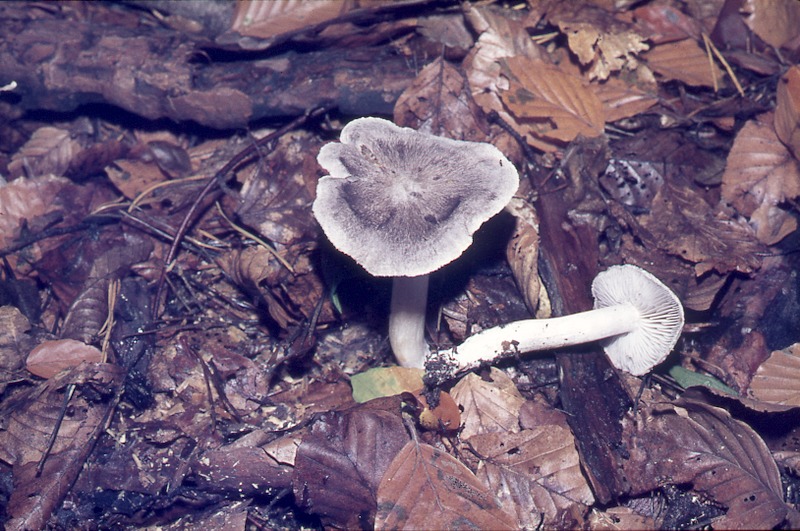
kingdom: Fungi
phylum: Basidiomycota
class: Agaricomycetes
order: Agaricales
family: Tricholomataceae
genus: Tricholoma
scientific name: Tricholoma terreum
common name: Grey knight
